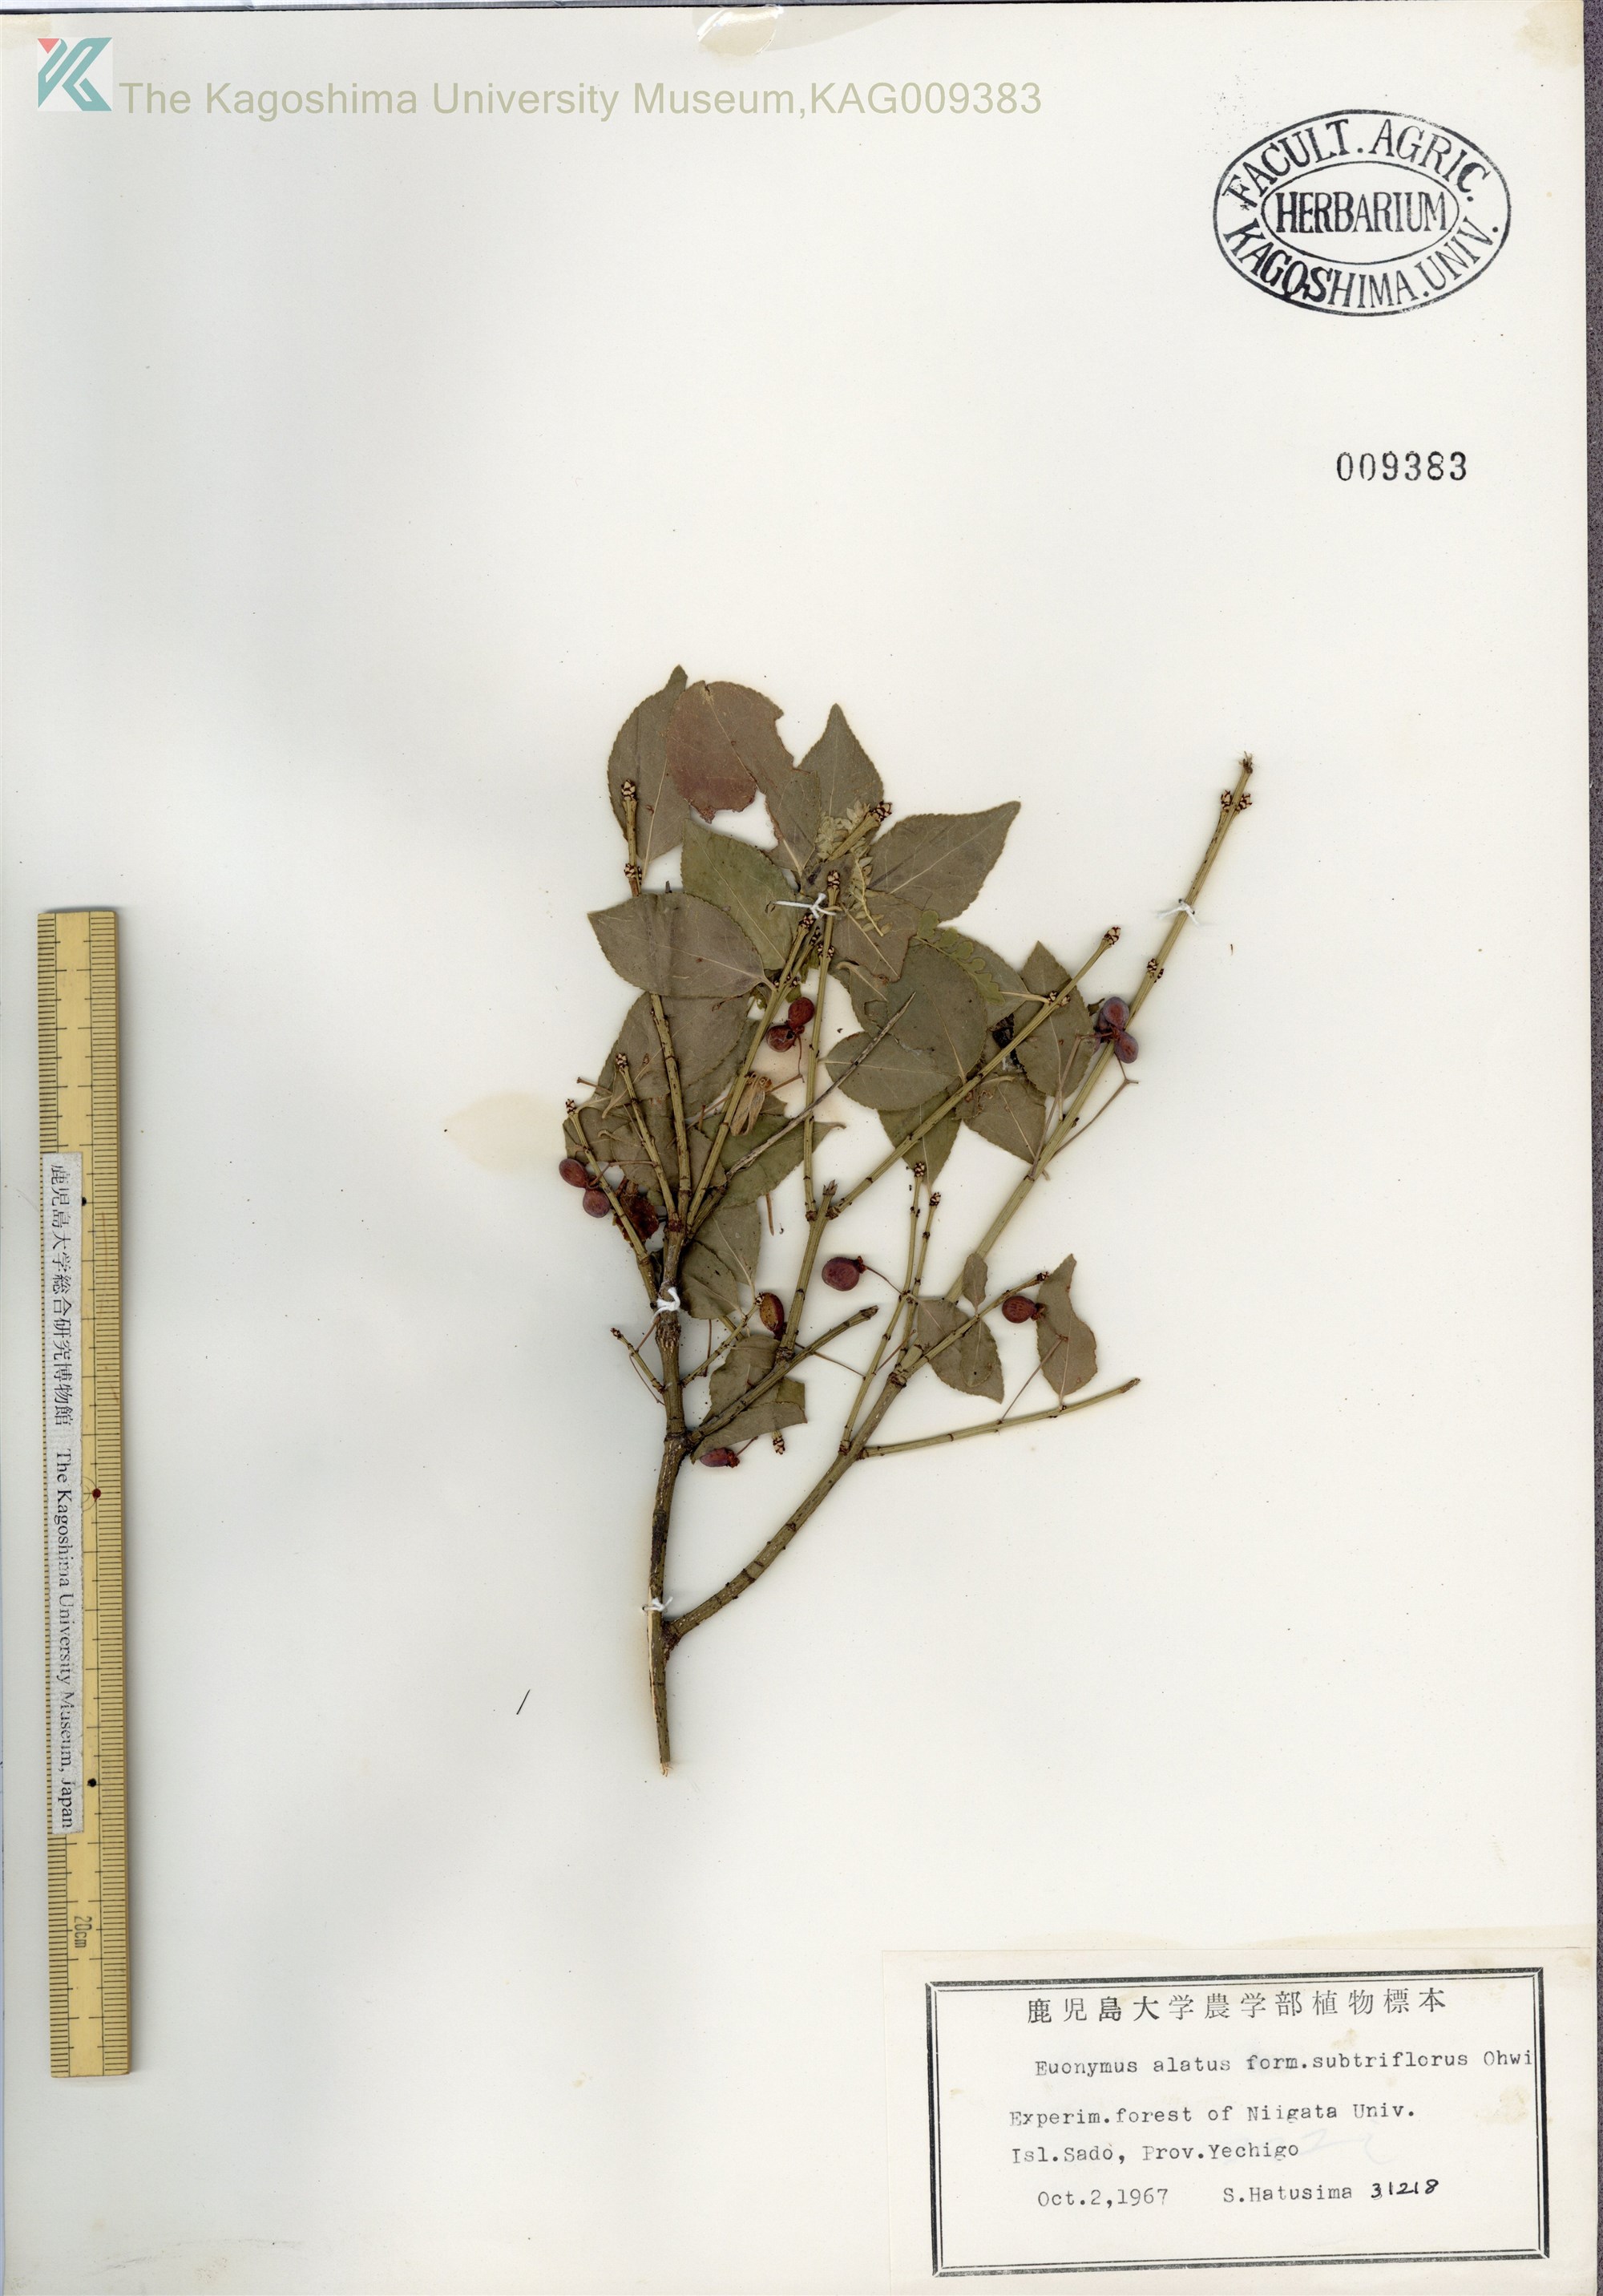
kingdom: Plantae
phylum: Tracheophyta
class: Magnoliopsida
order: Celastrales
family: Celastraceae
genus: Euonymus
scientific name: Euonymus alatus
